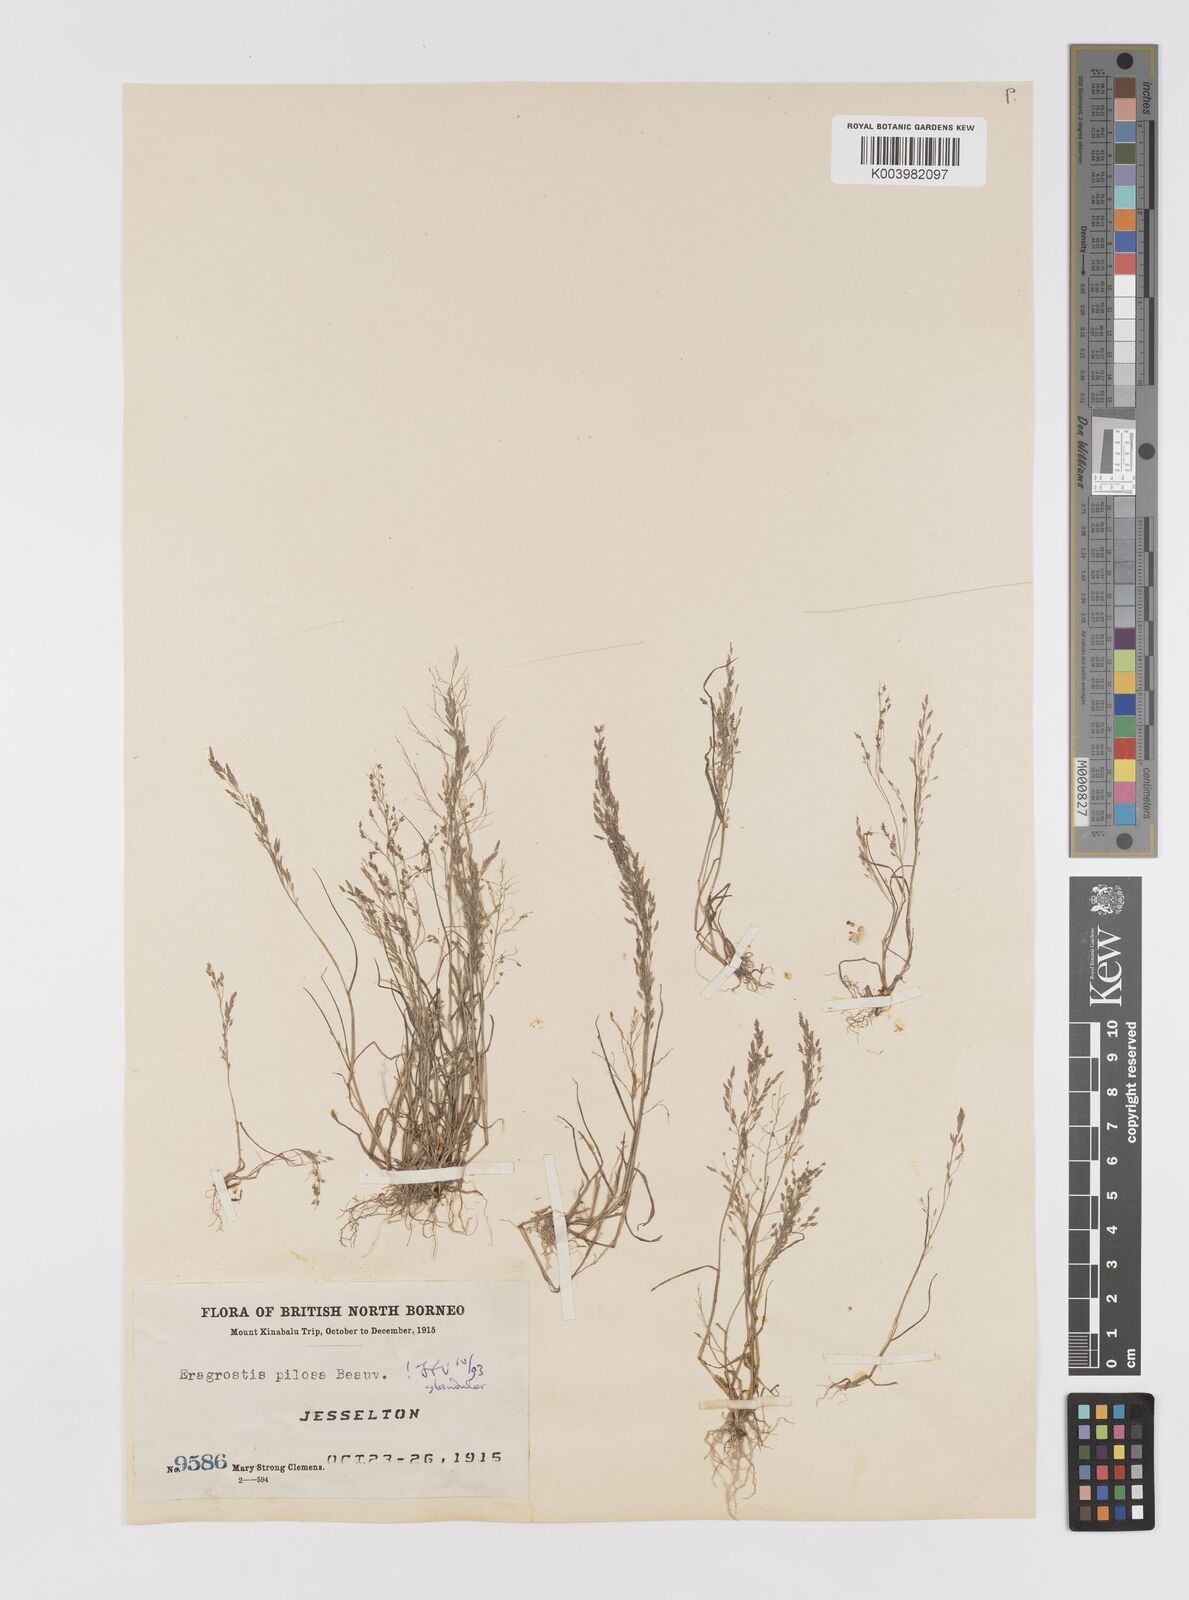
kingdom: Plantae
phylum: Tracheophyta
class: Liliopsida
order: Poales
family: Poaceae
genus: Eragrostis
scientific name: Eragrostis pilosa
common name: Indian lovegrass
